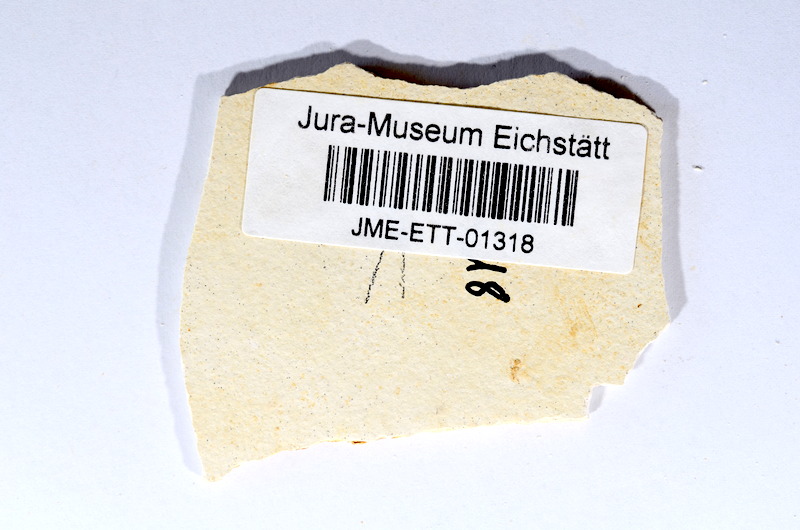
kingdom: Animalia
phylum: Chordata
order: Salmoniformes
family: Orthogonikleithridae
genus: Orthogonikleithrus
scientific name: Orthogonikleithrus hoelli
